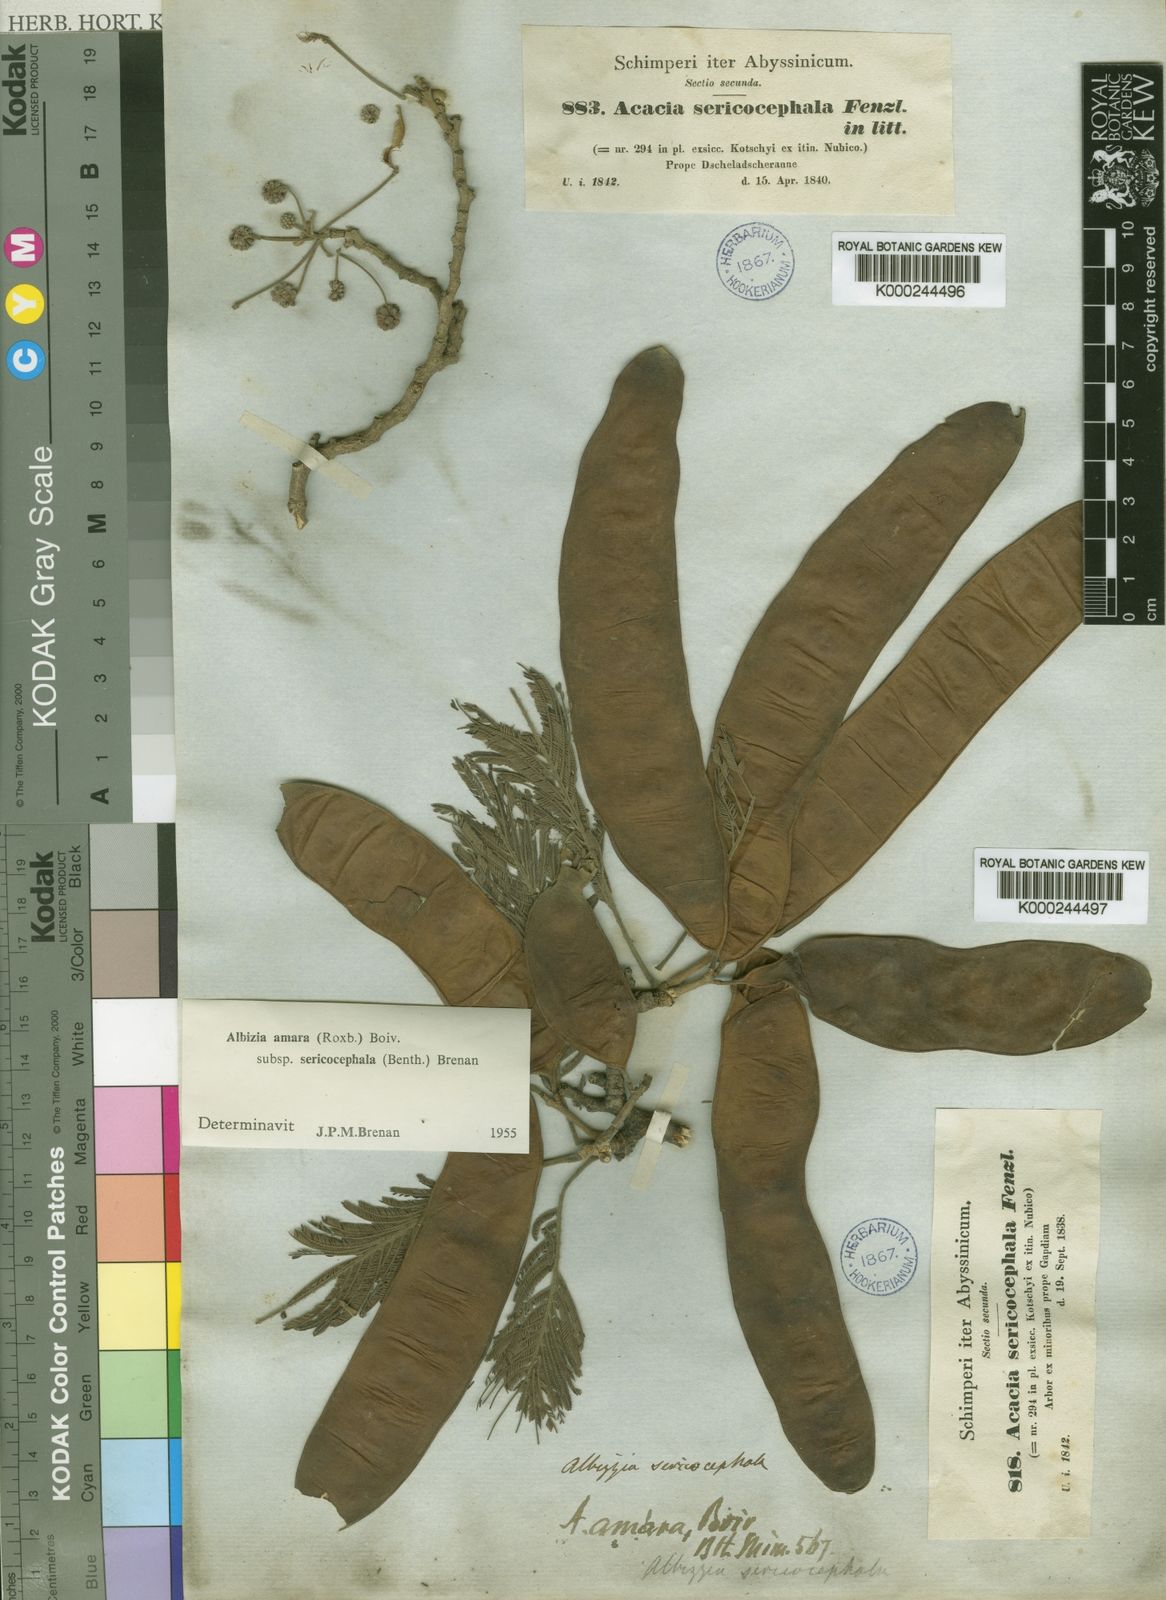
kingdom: Plantae
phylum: Tracheophyta
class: Magnoliopsida
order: Fabales
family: Fabaceae
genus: Albizia
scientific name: Albizia amara
